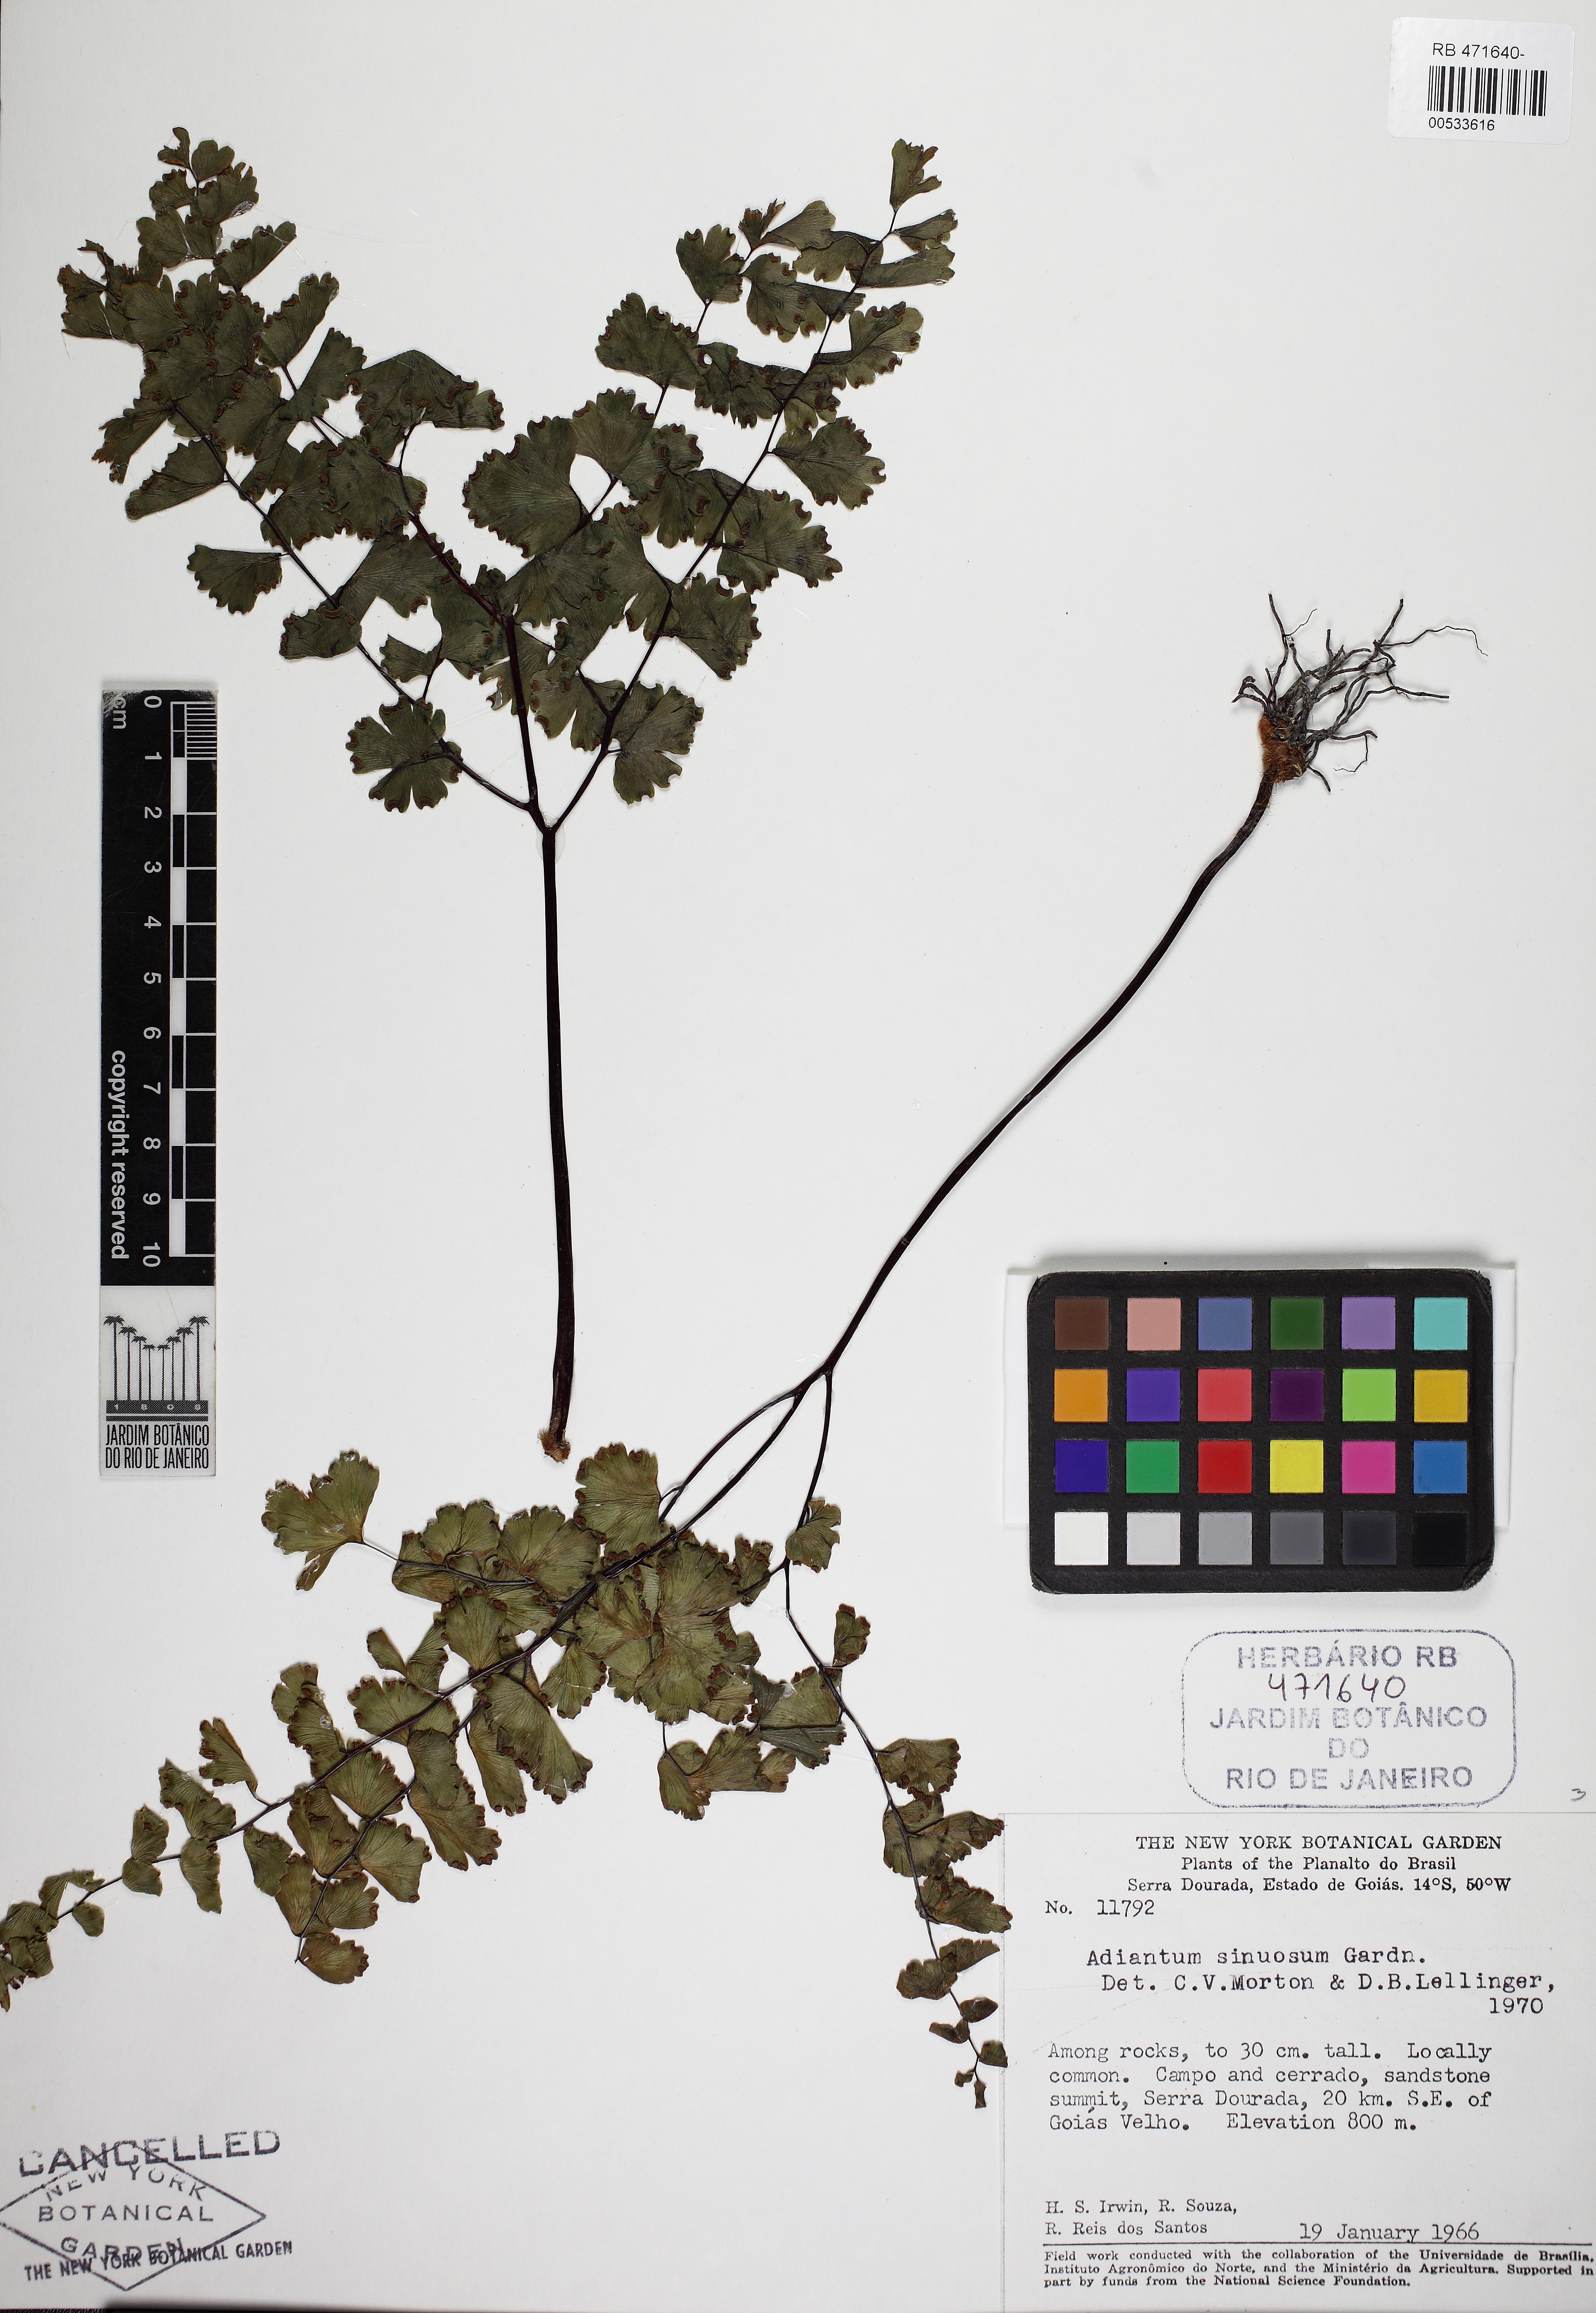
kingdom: Plantae
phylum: Tracheophyta
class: Polypodiopsida
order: Polypodiales
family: Pteridaceae
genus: Adiantum
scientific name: Adiantum sinuosum
